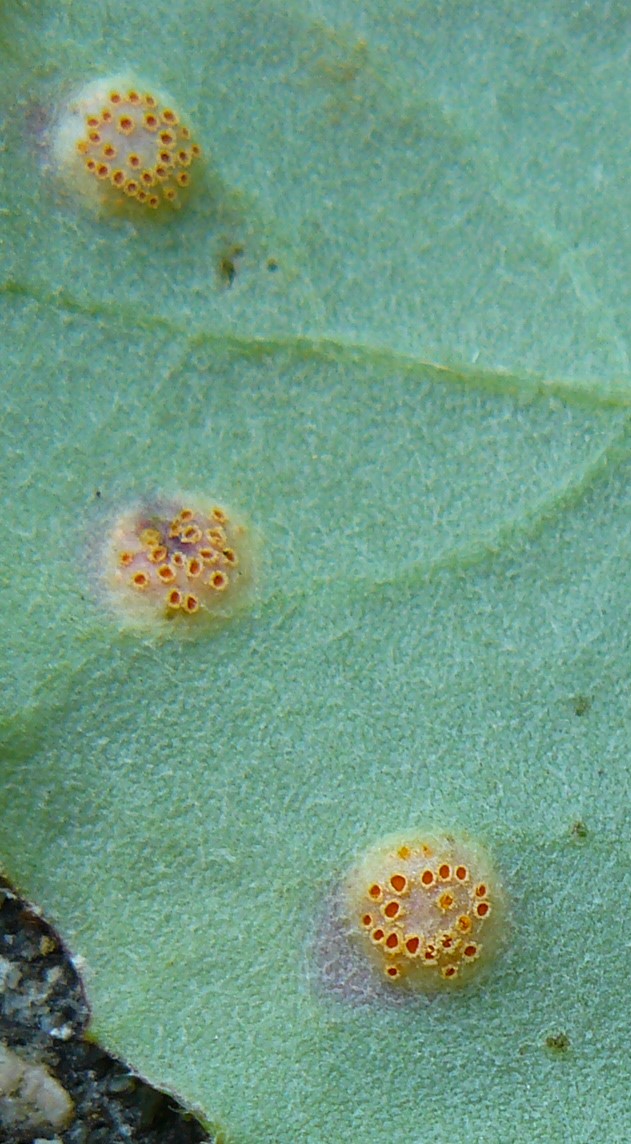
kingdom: Fungi
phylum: Basidiomycota
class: Pucciniomycetes
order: Pucciniales
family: Pucciniaceae
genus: Puccinia
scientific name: Puccinia poarum
